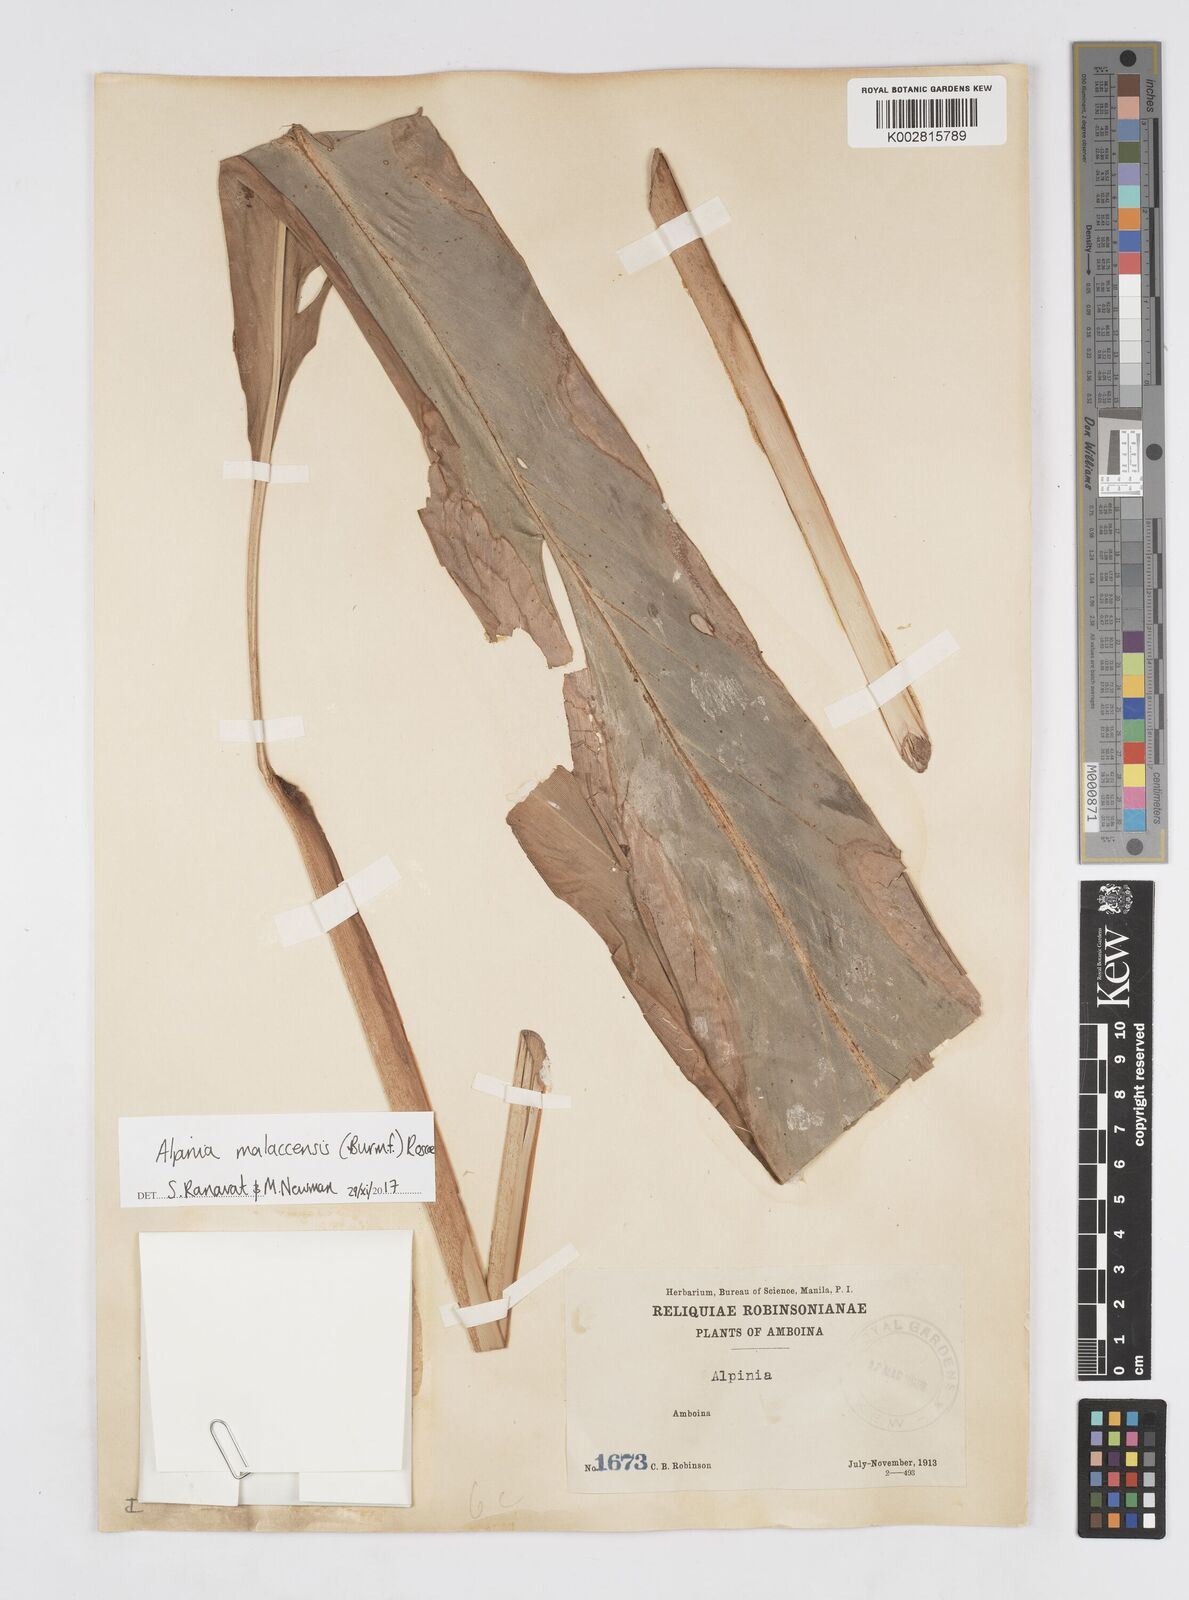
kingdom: Plantae
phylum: Tracheophyta
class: Liliopsida
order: Zingiberales
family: Zingiberaceae
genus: Alpinia
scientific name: Alpinia malaccensis
